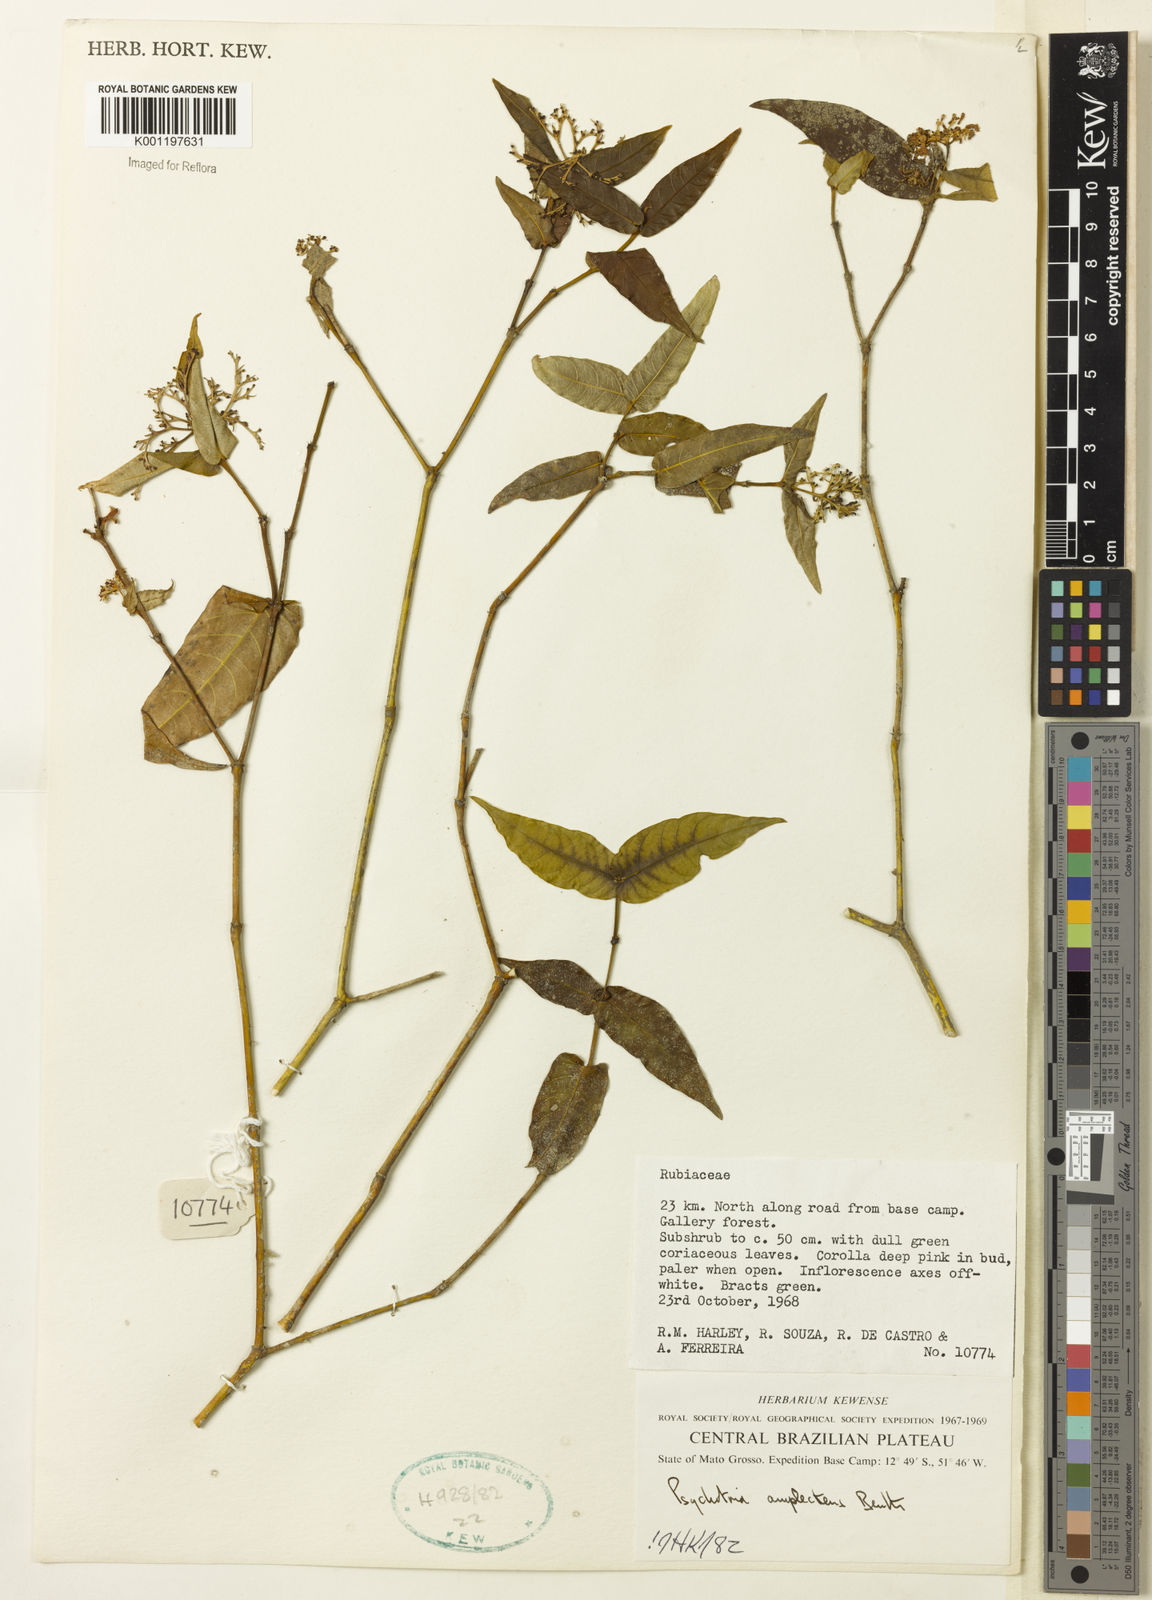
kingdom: Plantae
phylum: Tracheophyta
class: Magnoliopsida
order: Gentianales
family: Rubiaceae
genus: Psychotria
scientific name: Psychotria
